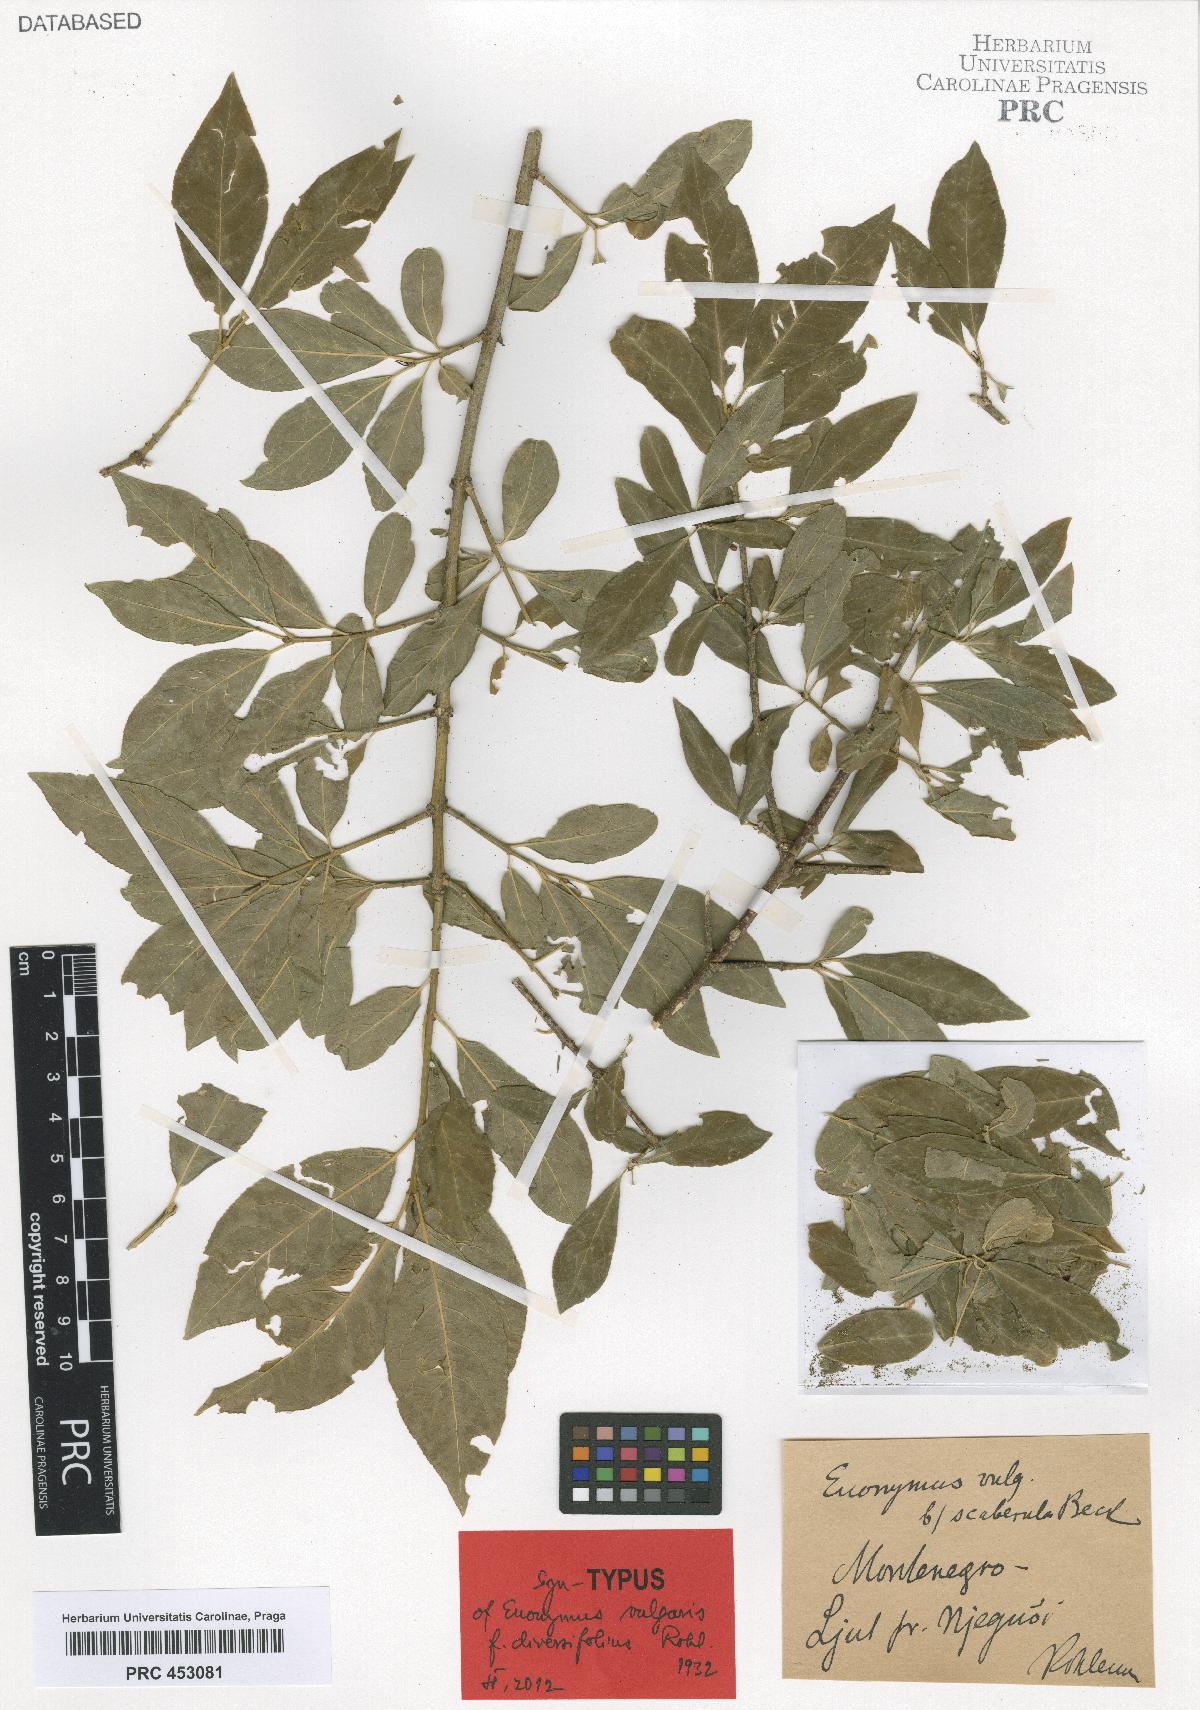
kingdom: Plantae
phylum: Tracheophyta
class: Magnoliopsida
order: Celastrales
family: Celastraceae
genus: Euonymus
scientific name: Euonymus europaeus
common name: Spindle
